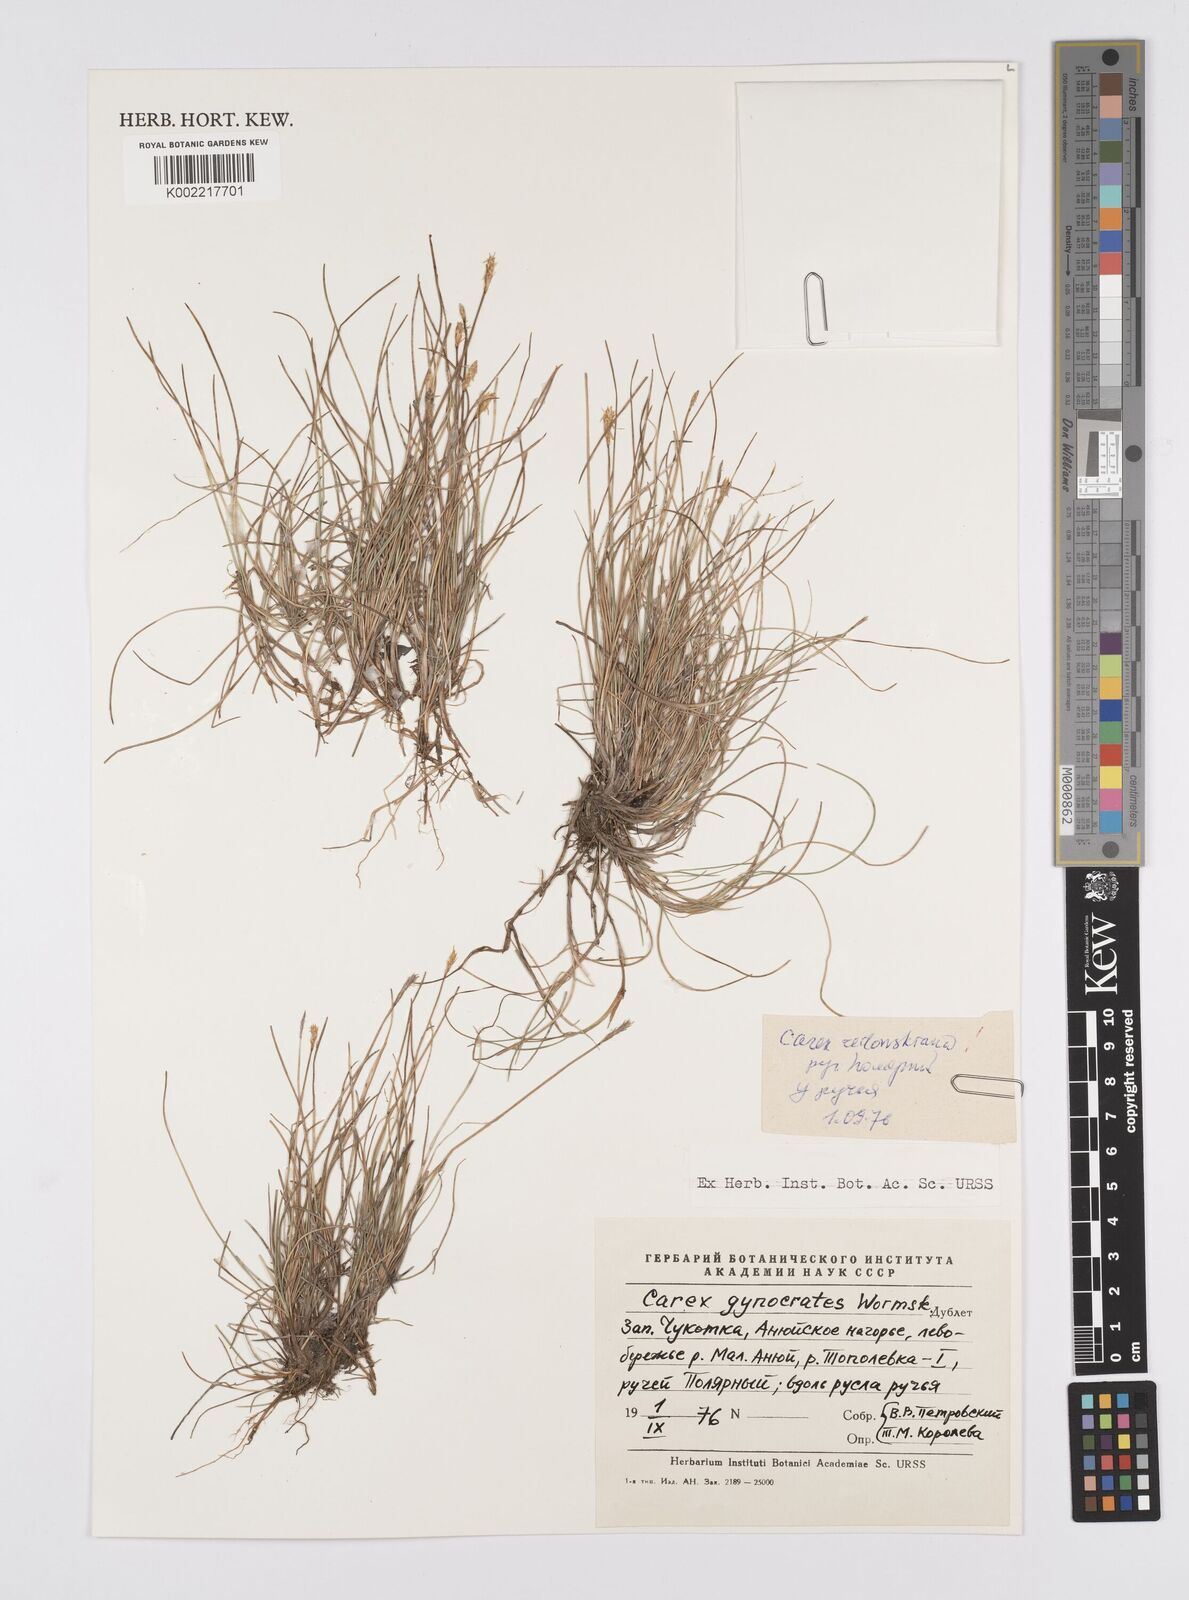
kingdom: Plantae
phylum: Tracheophyta
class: Liliopsida
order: Poales
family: Cyperaceae
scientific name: Cyperaceae
